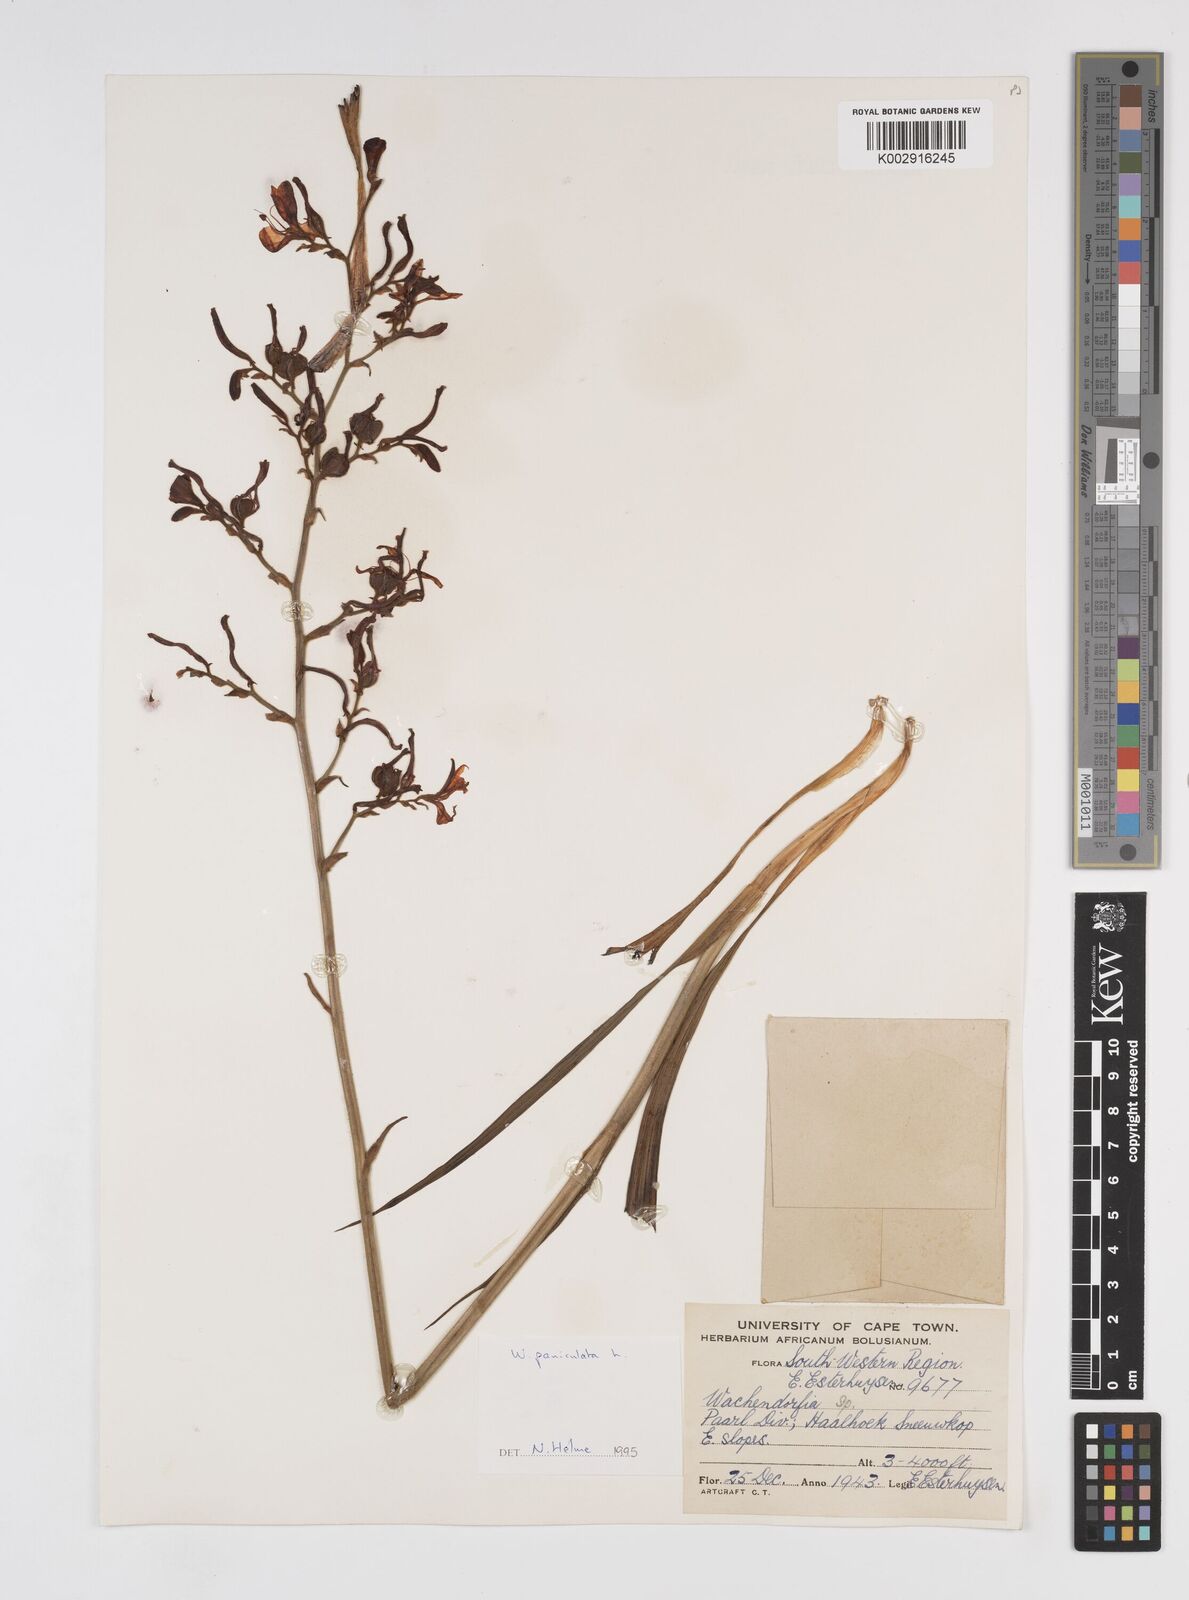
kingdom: Plantae
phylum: Tracheophyta
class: Liliopsida
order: Commelinales
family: Haemodoraceae
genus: Wachendorfia
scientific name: Wachendorfia paniculata
